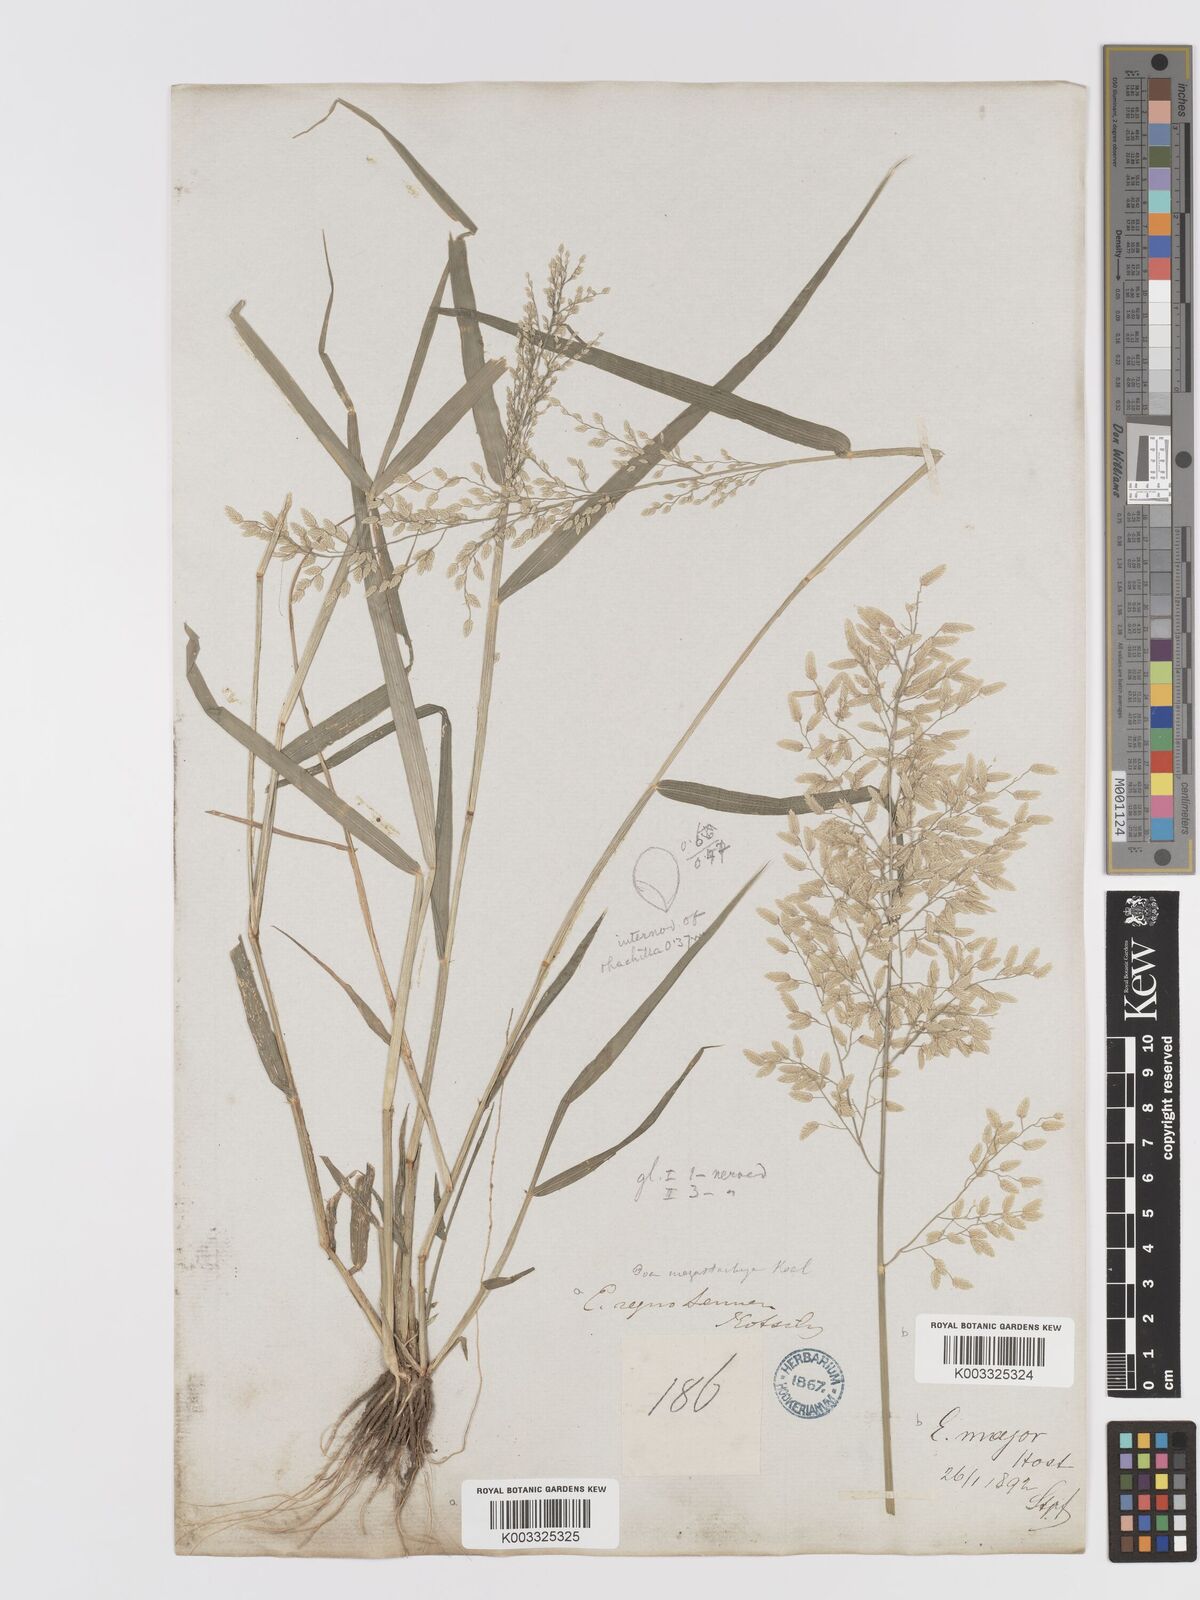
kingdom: Plantae
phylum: Tracheophyta
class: Liliopsida
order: Poales
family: Poaceae
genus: Eragrostis
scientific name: Eragrostis cilianensis
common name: Stinkgrass
